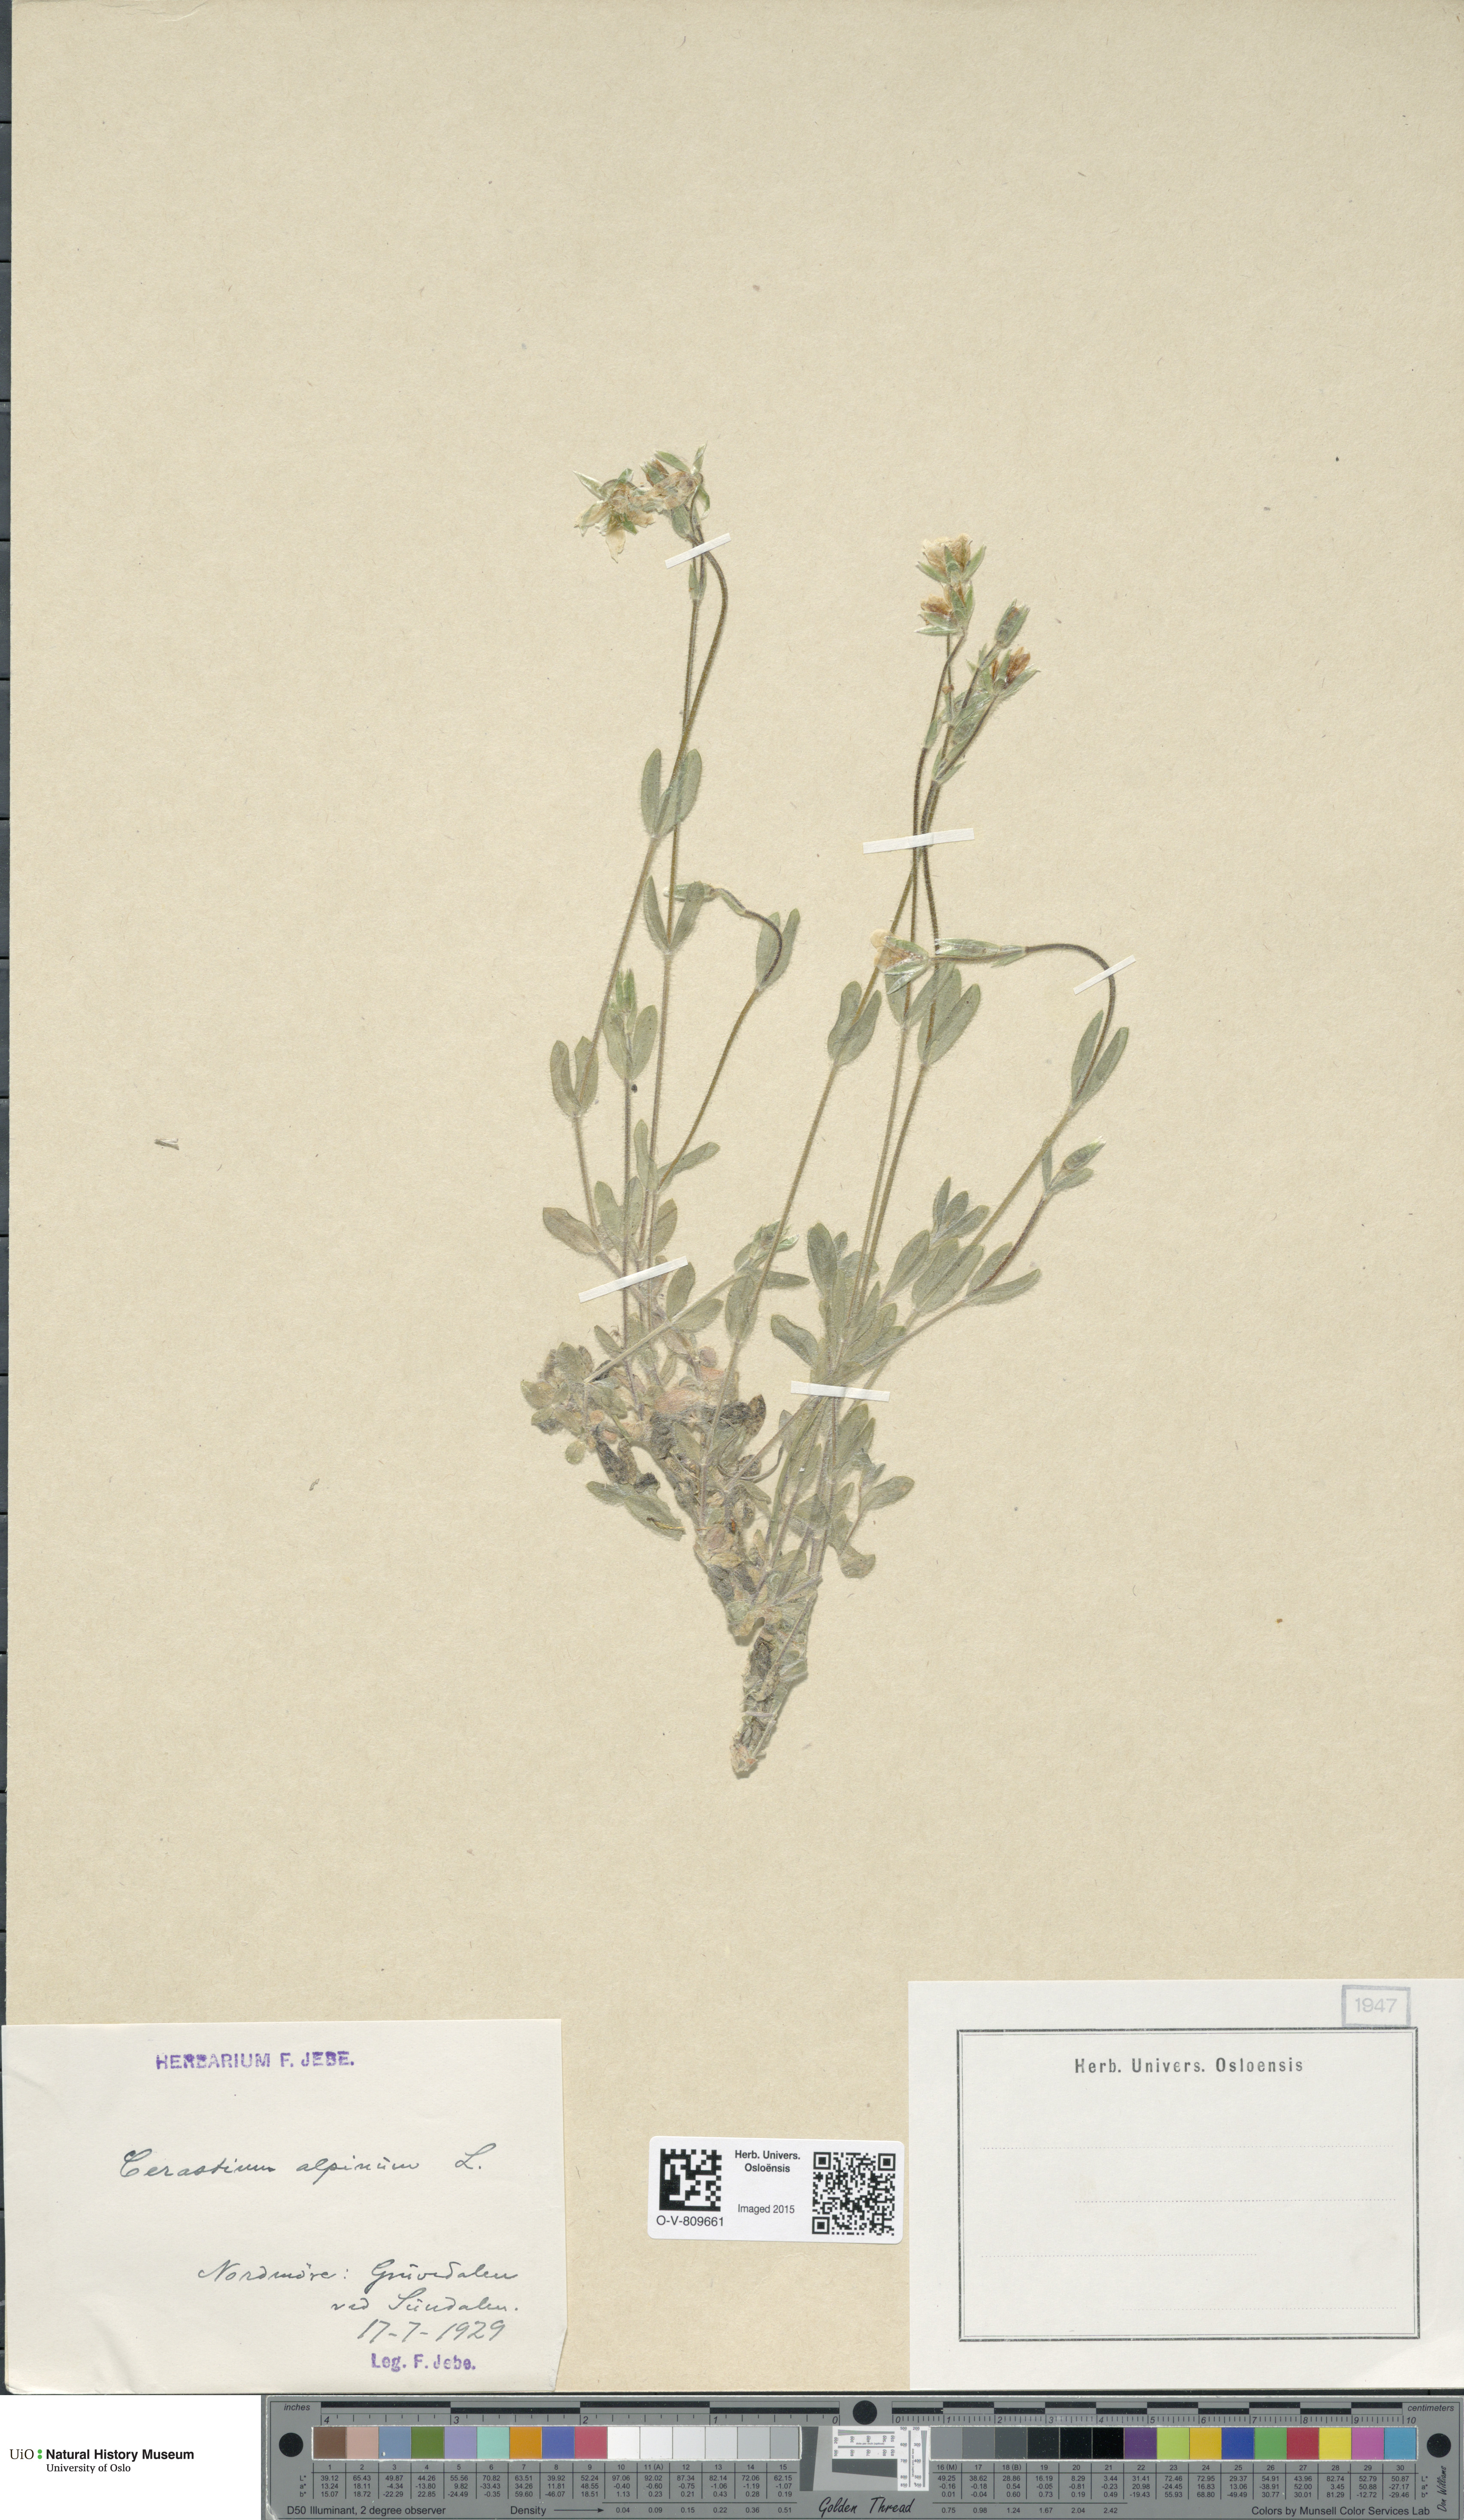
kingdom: Plantae
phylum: Tracheophyta
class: Magnoliopsida
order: Caryophyllales
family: Caryophyllaceae
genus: Cerastium
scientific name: Cerastium alpinum
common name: Alpine mouse-ear
